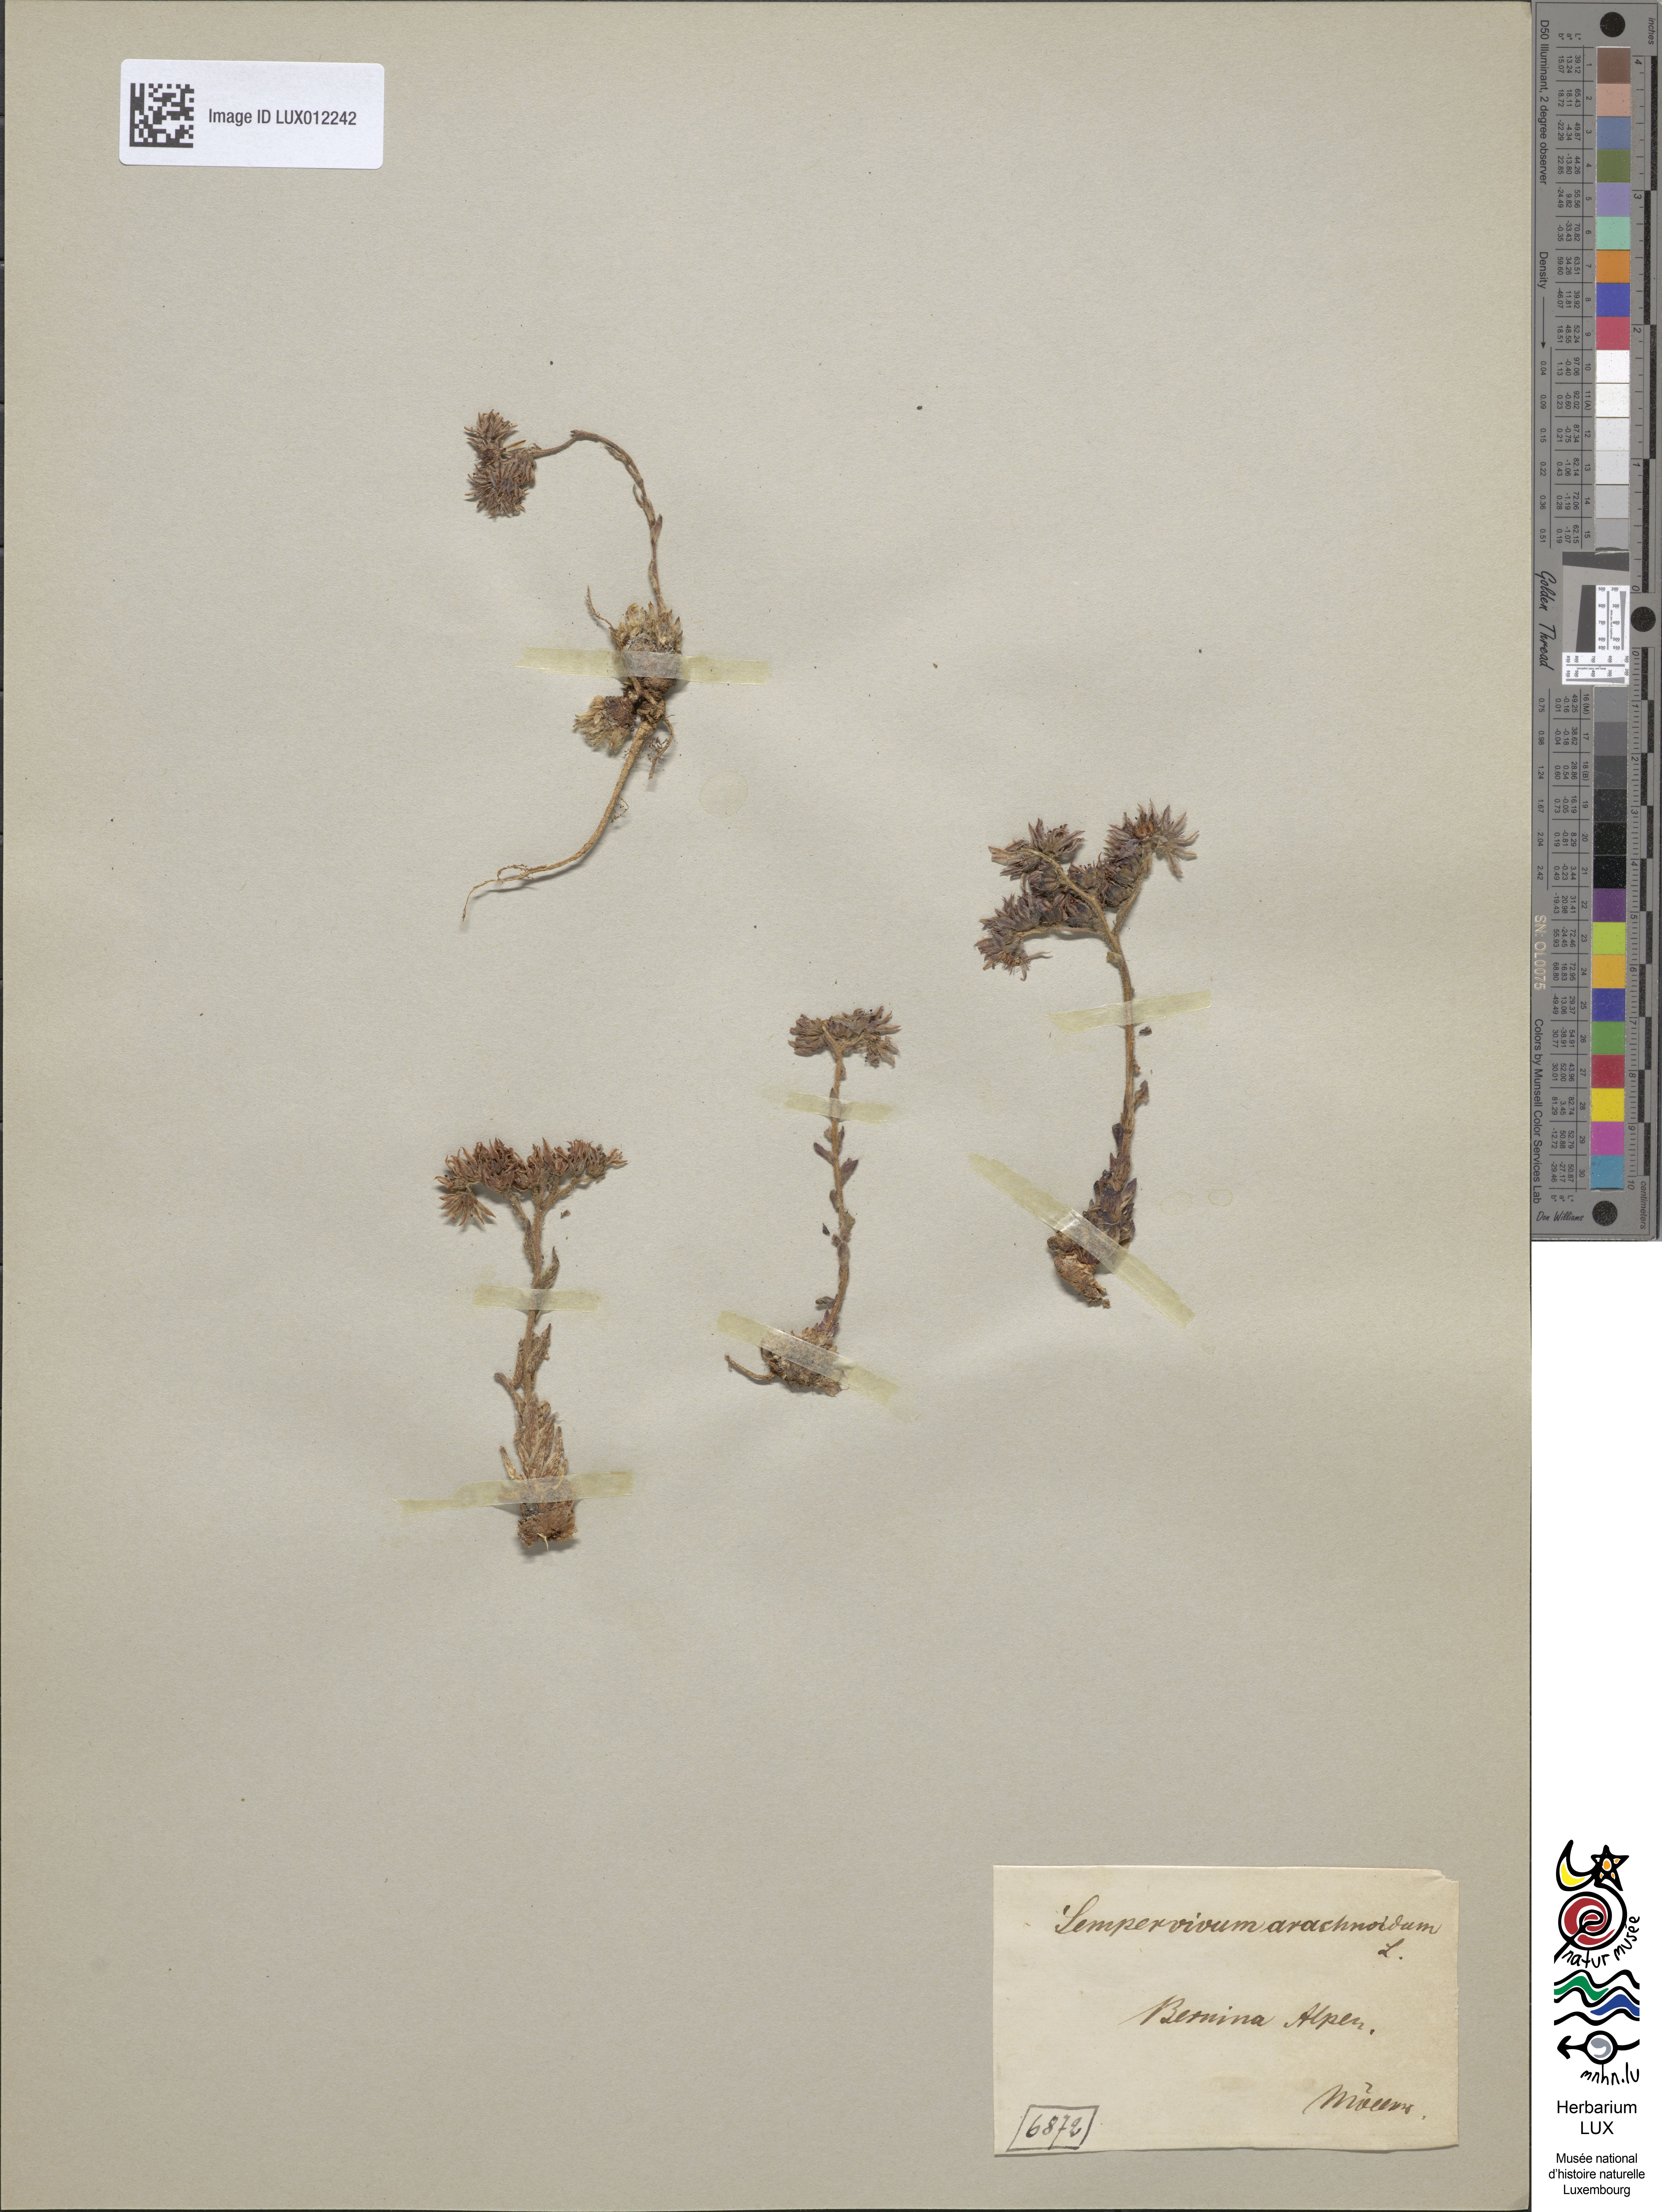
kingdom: Plantae
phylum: Tracheophyta
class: Magnoliopsida
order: Saxifragales
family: Crassulaceae
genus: Sempervivum
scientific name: Sempervivum arachnoideum
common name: Cobweb house-leek
